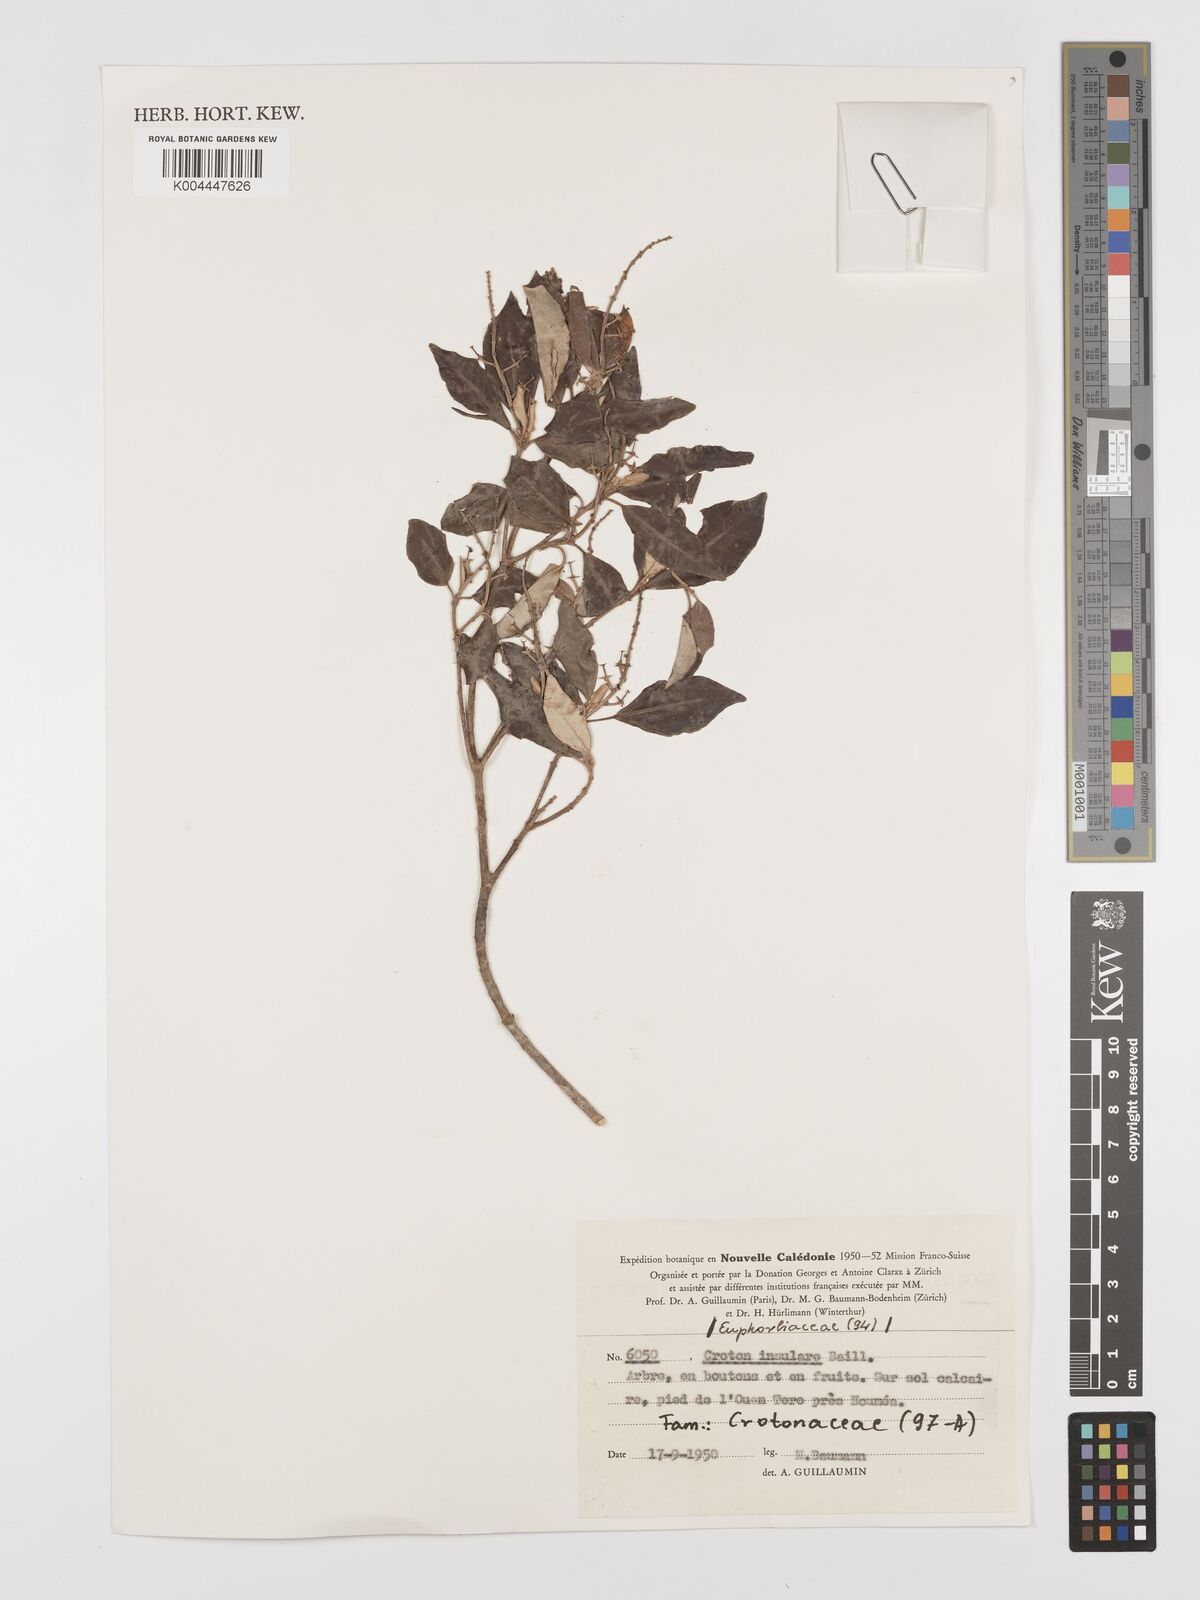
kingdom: Plantae
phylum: Tracheophyta
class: Magnoliopsida
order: Malpighiales
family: Euphorbiaceae
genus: Croton
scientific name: Croton insularis
